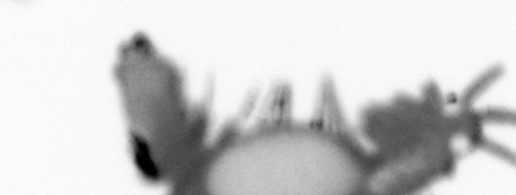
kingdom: Animalia
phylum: Annelida
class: Polychaeta
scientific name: Polychaeta
